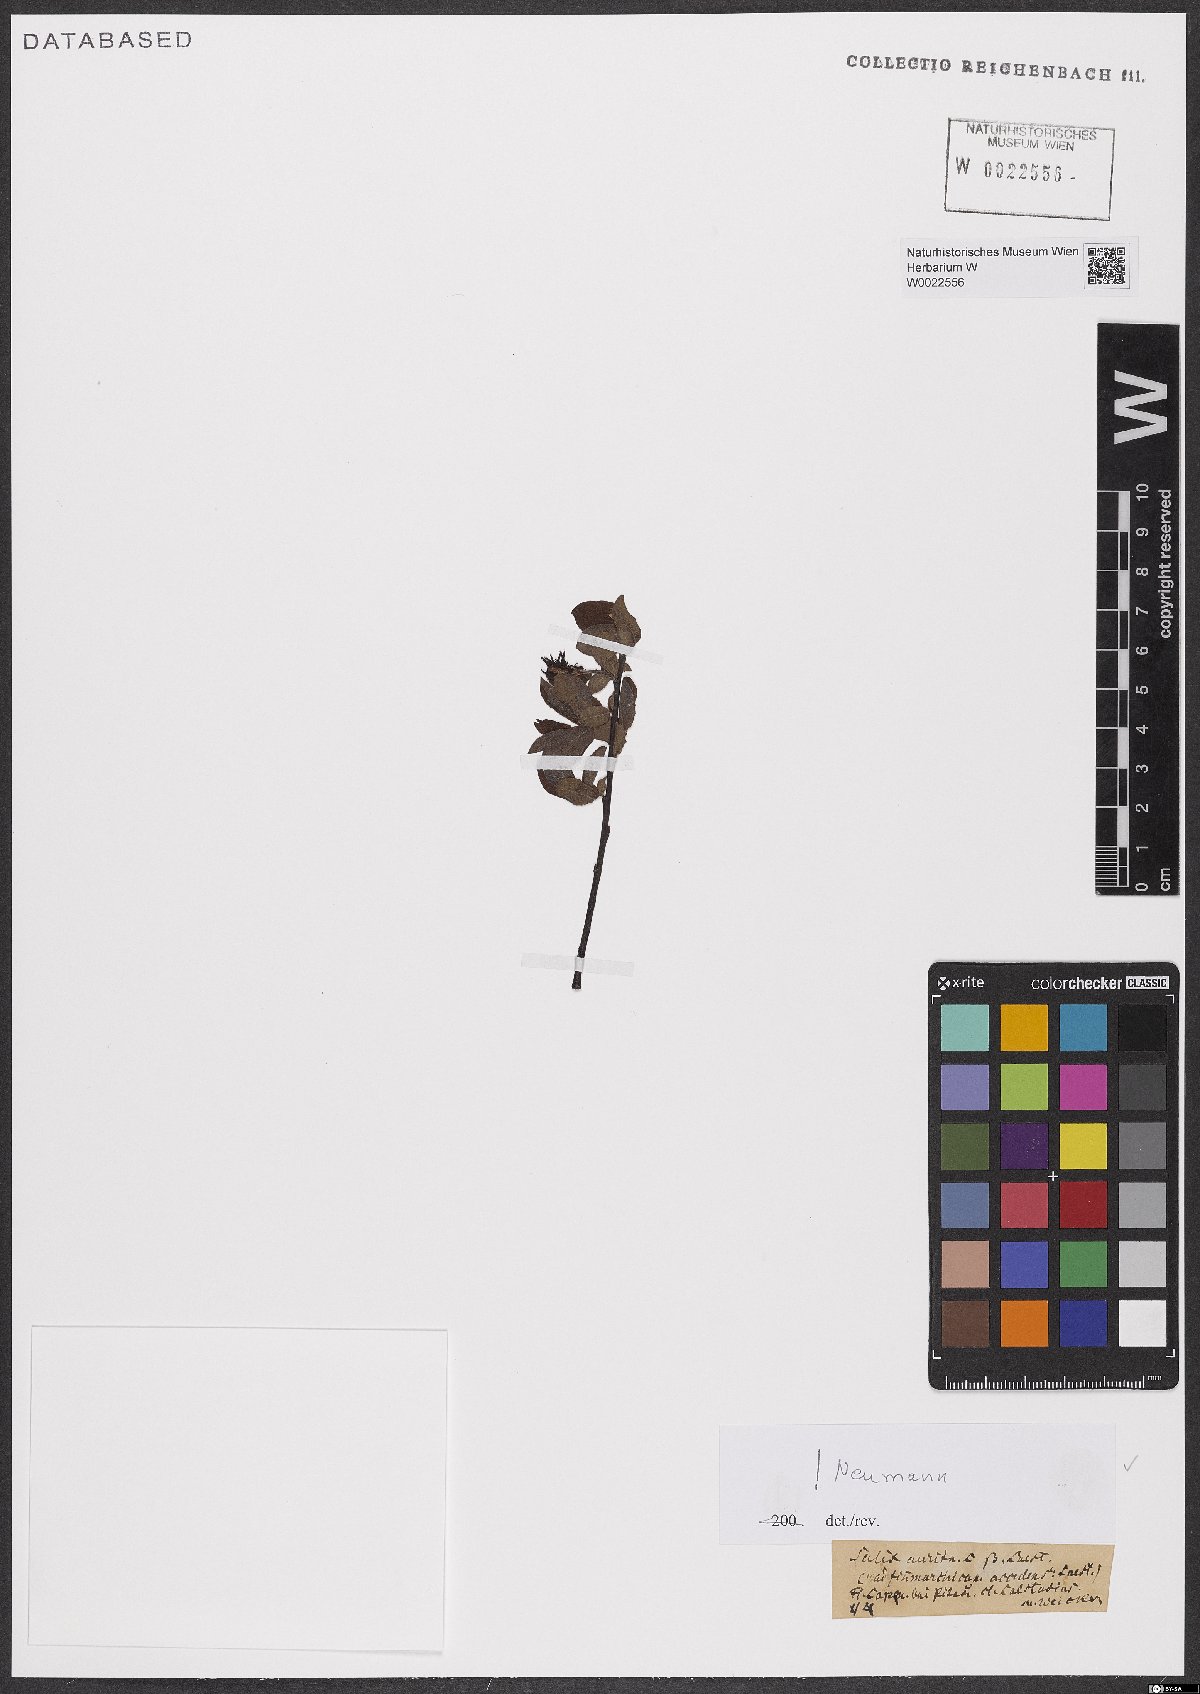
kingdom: Plantae
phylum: Tracheophyta
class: Magnoliopsida
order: Malpighiales
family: Salicaceae
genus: Salix
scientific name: Salix aurita
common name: Eared willow
